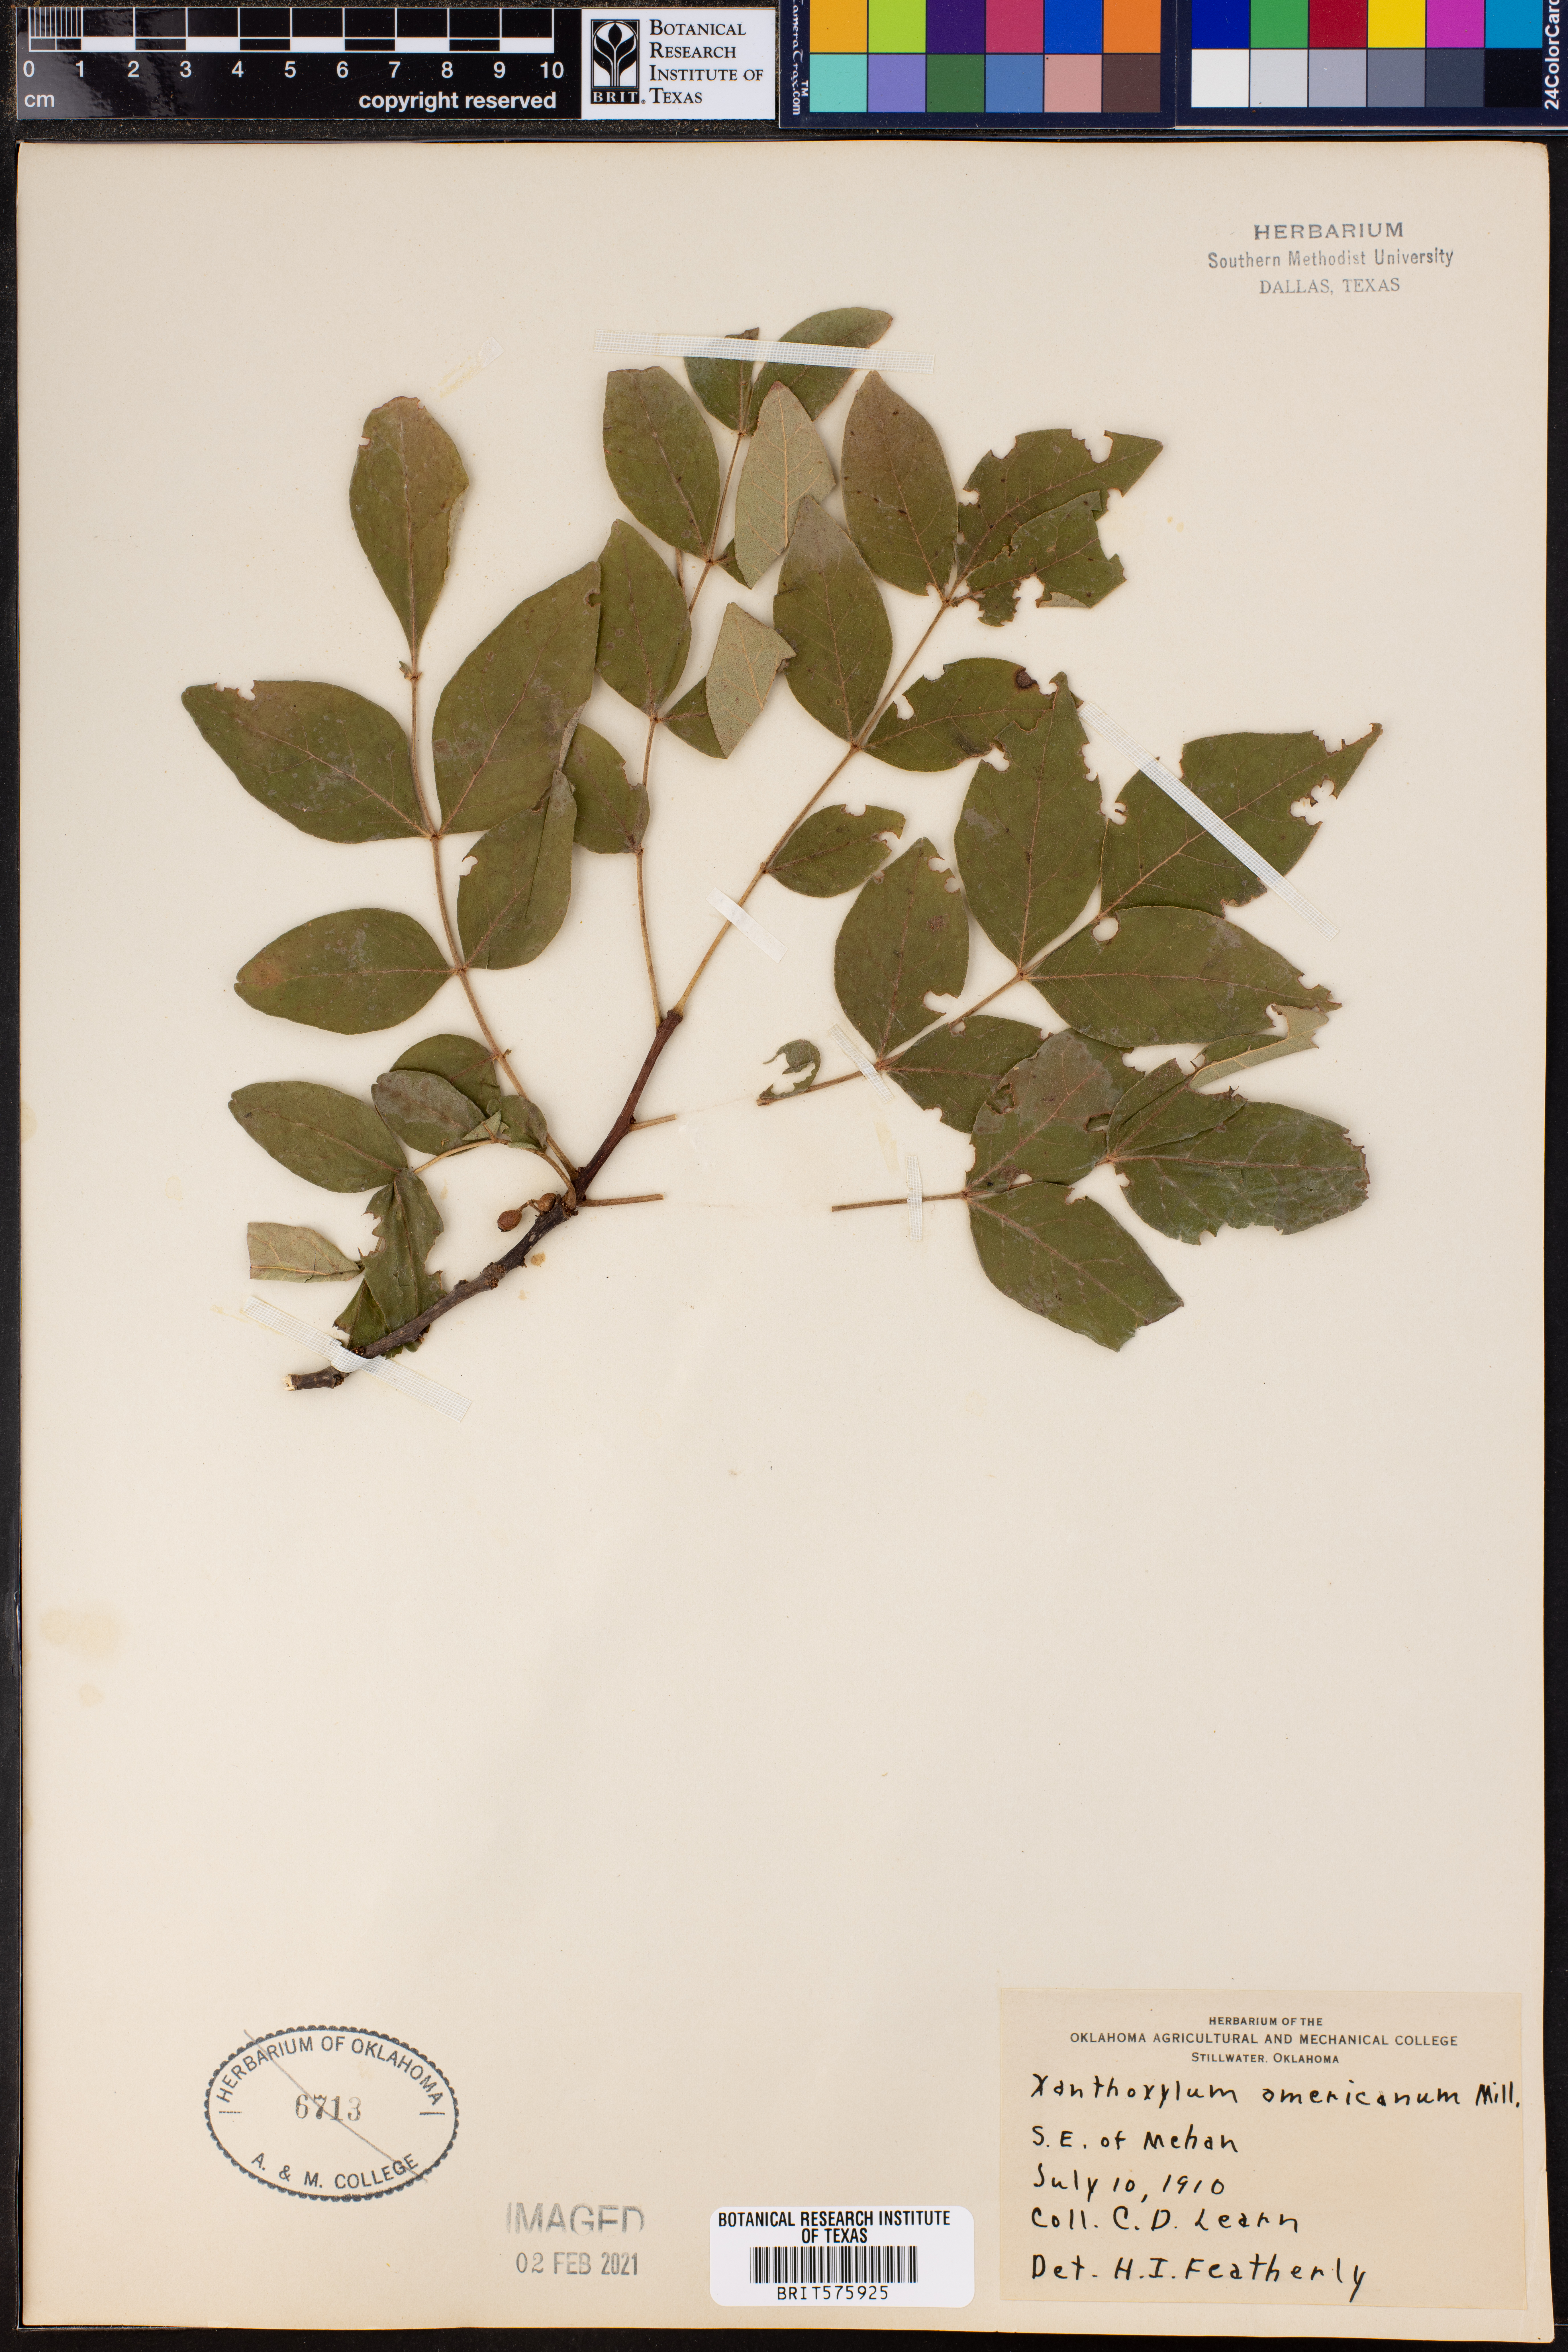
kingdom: Plantae
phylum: Tracheophyta
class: Magnoliopsida
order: Sapindales
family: Rutaceae
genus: Zanthoxylum
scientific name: Zanthoxylum americanum
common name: Northern prickly-ash
